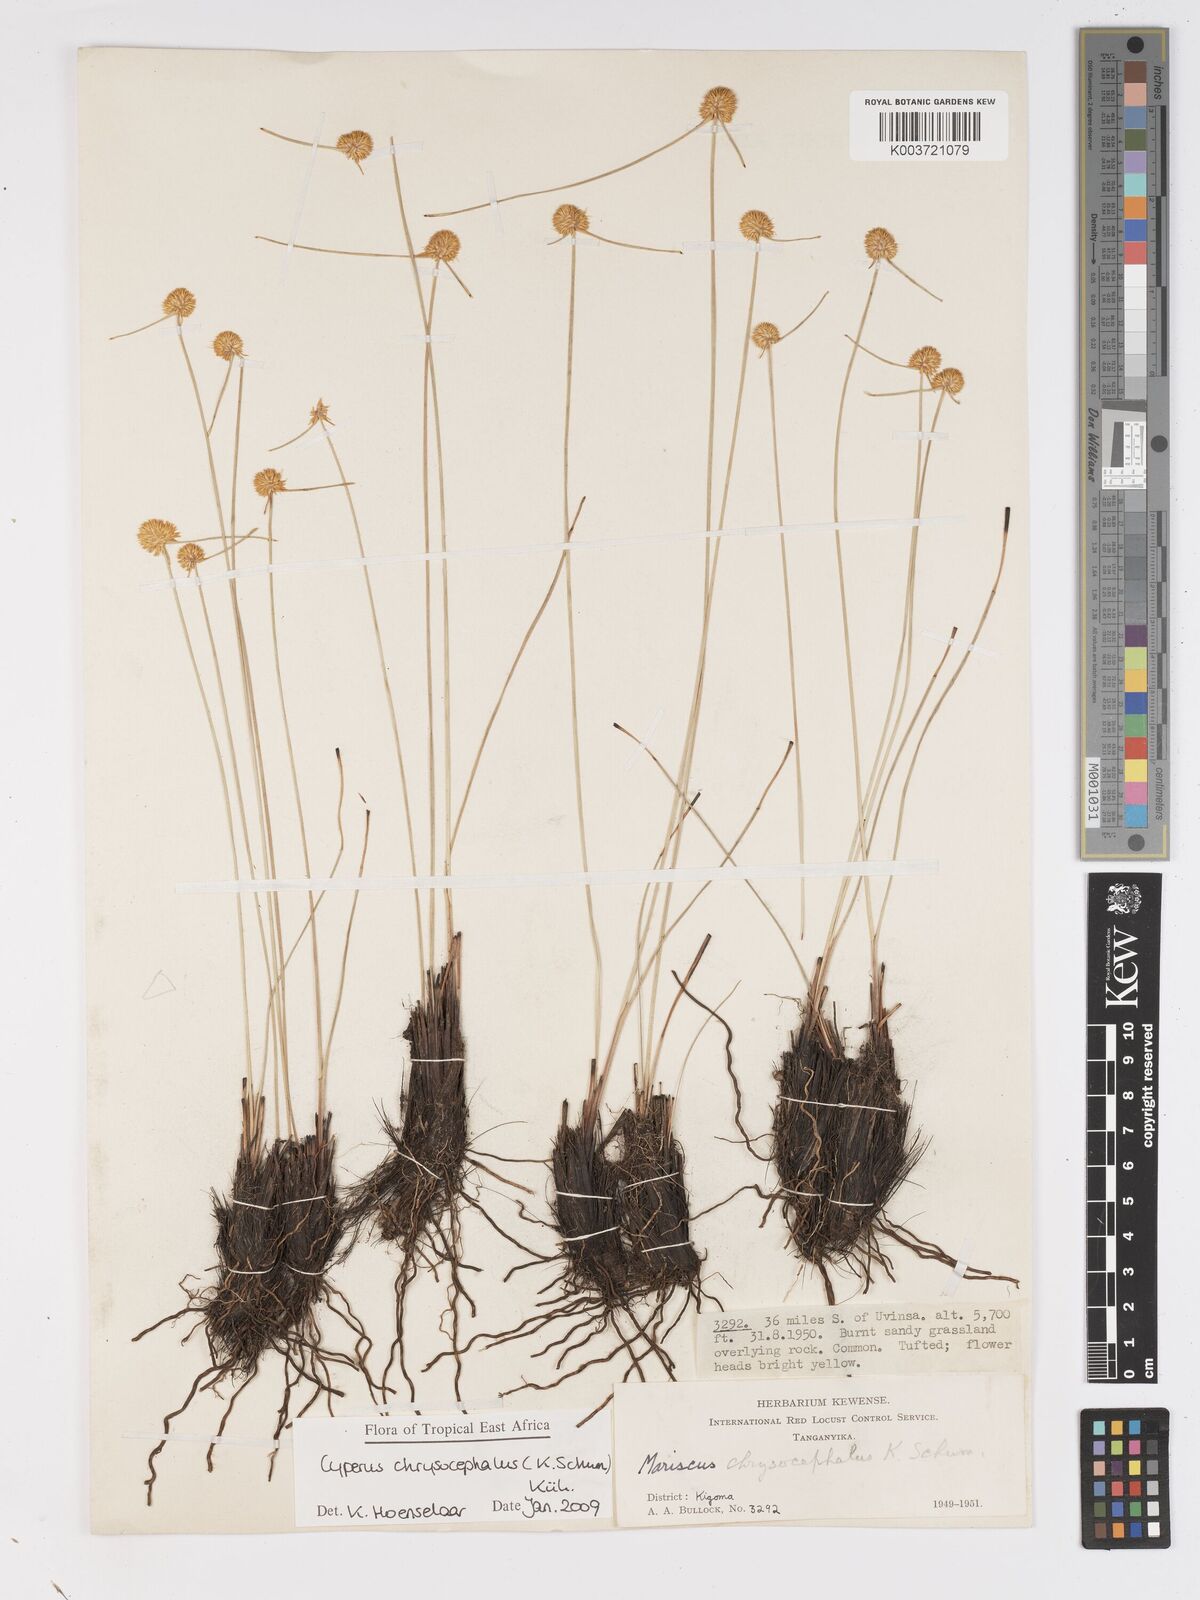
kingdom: Plantae
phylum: Tracheophyta
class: Liliopsida
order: Poales
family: Cyperaceae
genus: Cyperus
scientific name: Cyperus chrysocephalus
